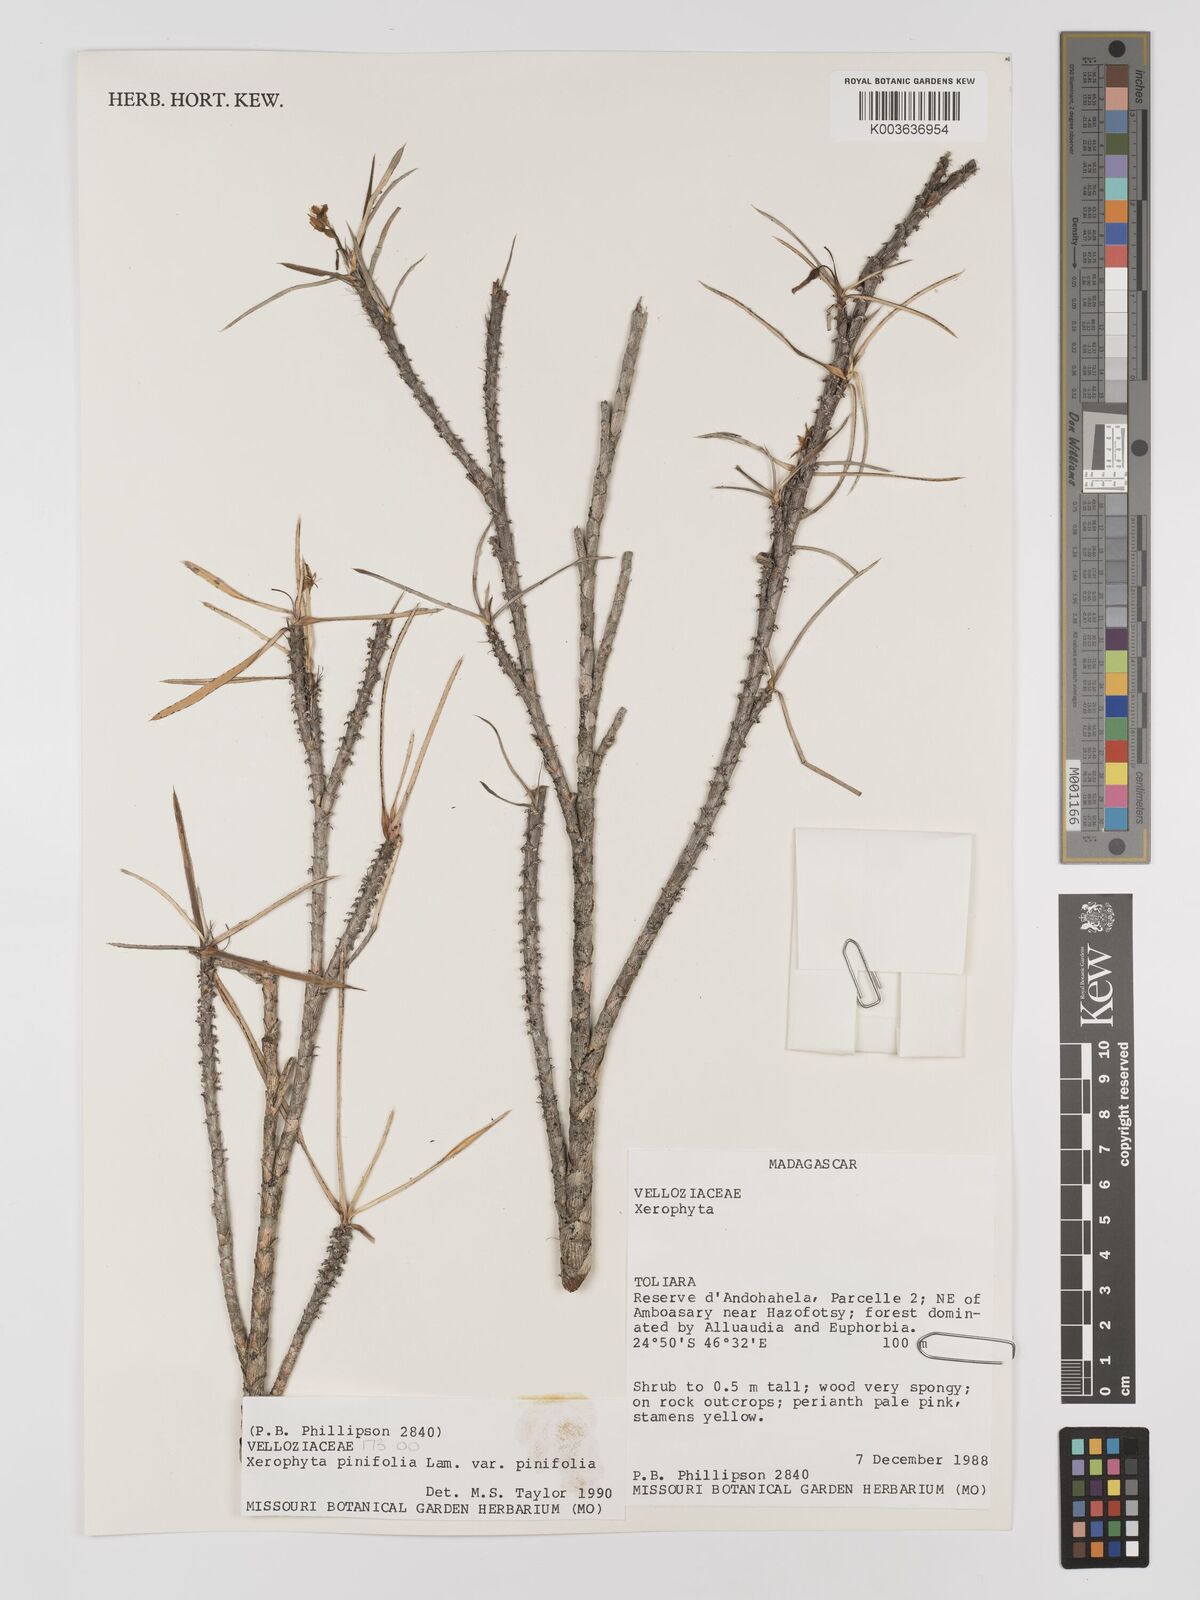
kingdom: Plantae
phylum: Tracheophyta
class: Liliopsida
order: Pandanales
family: Velloziaceae
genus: Xerophyta
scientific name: Xerophyta pinifolia
